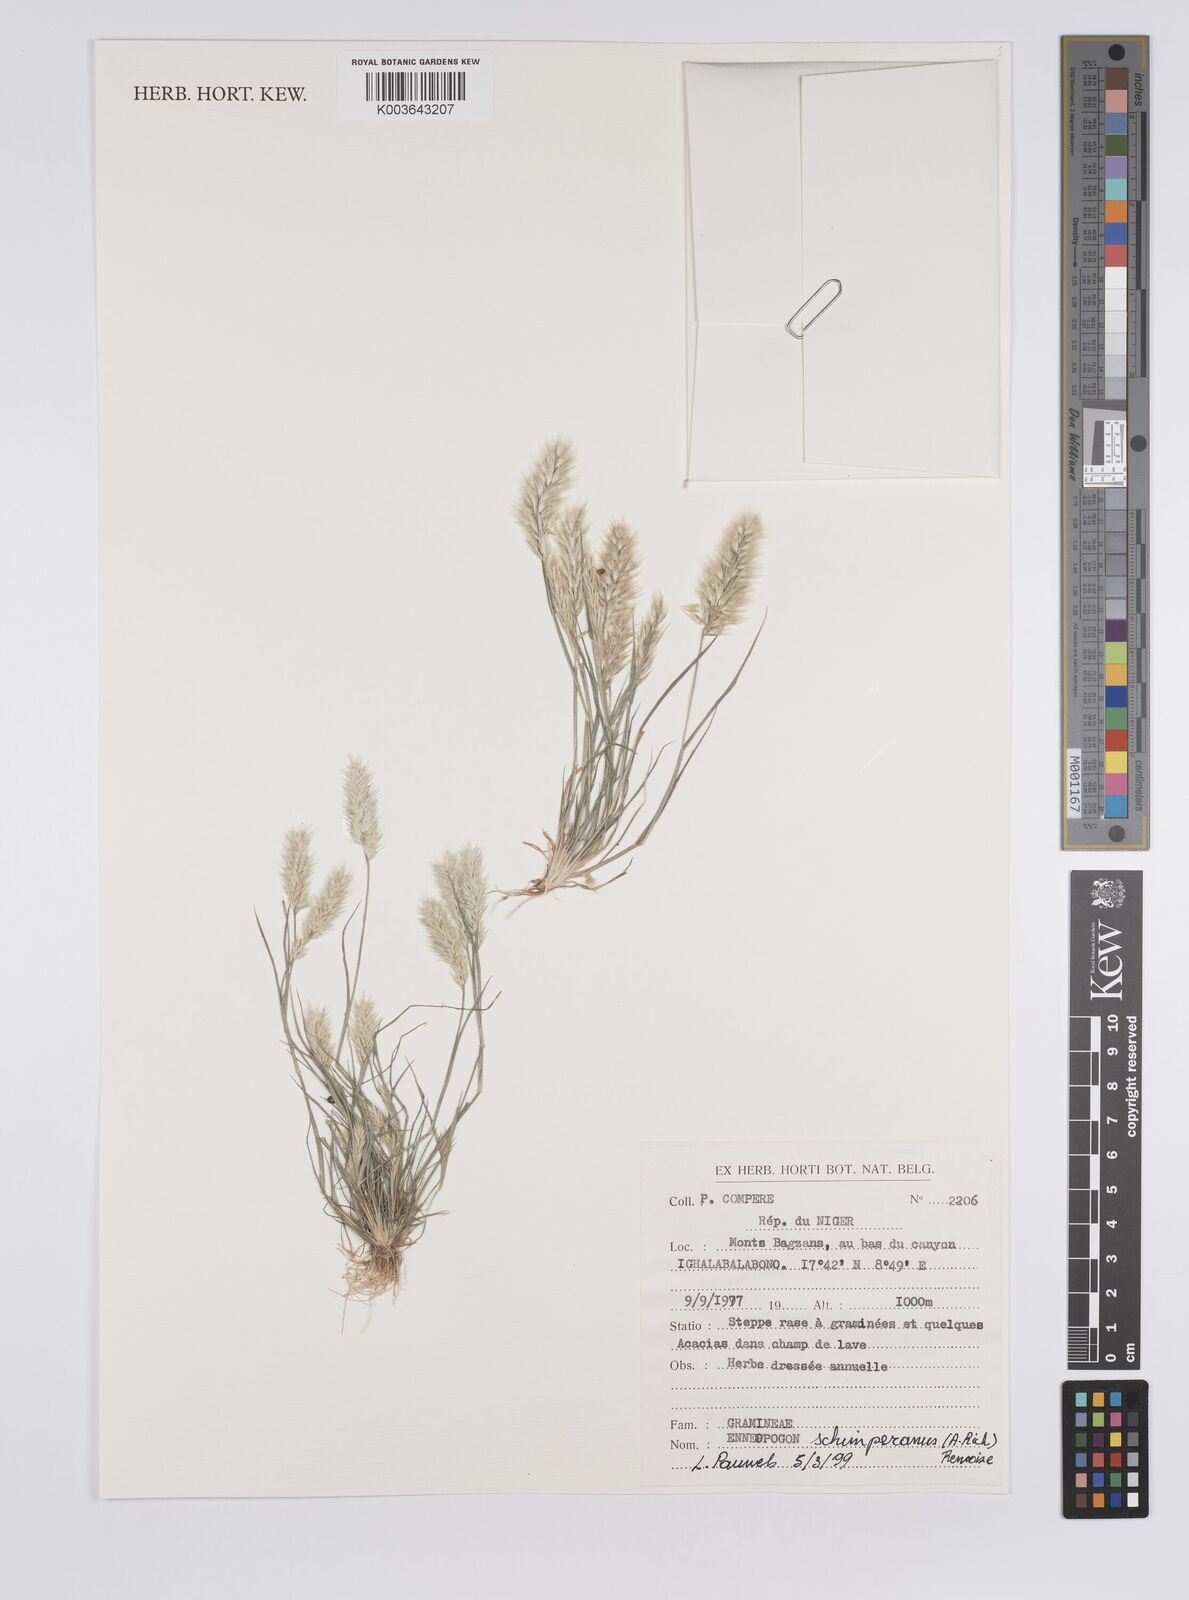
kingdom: Plantae
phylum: Tracheophyta
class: Liliopsida
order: Poales
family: Poaceae
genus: Enneapogon
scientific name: Enneapogon persicus
